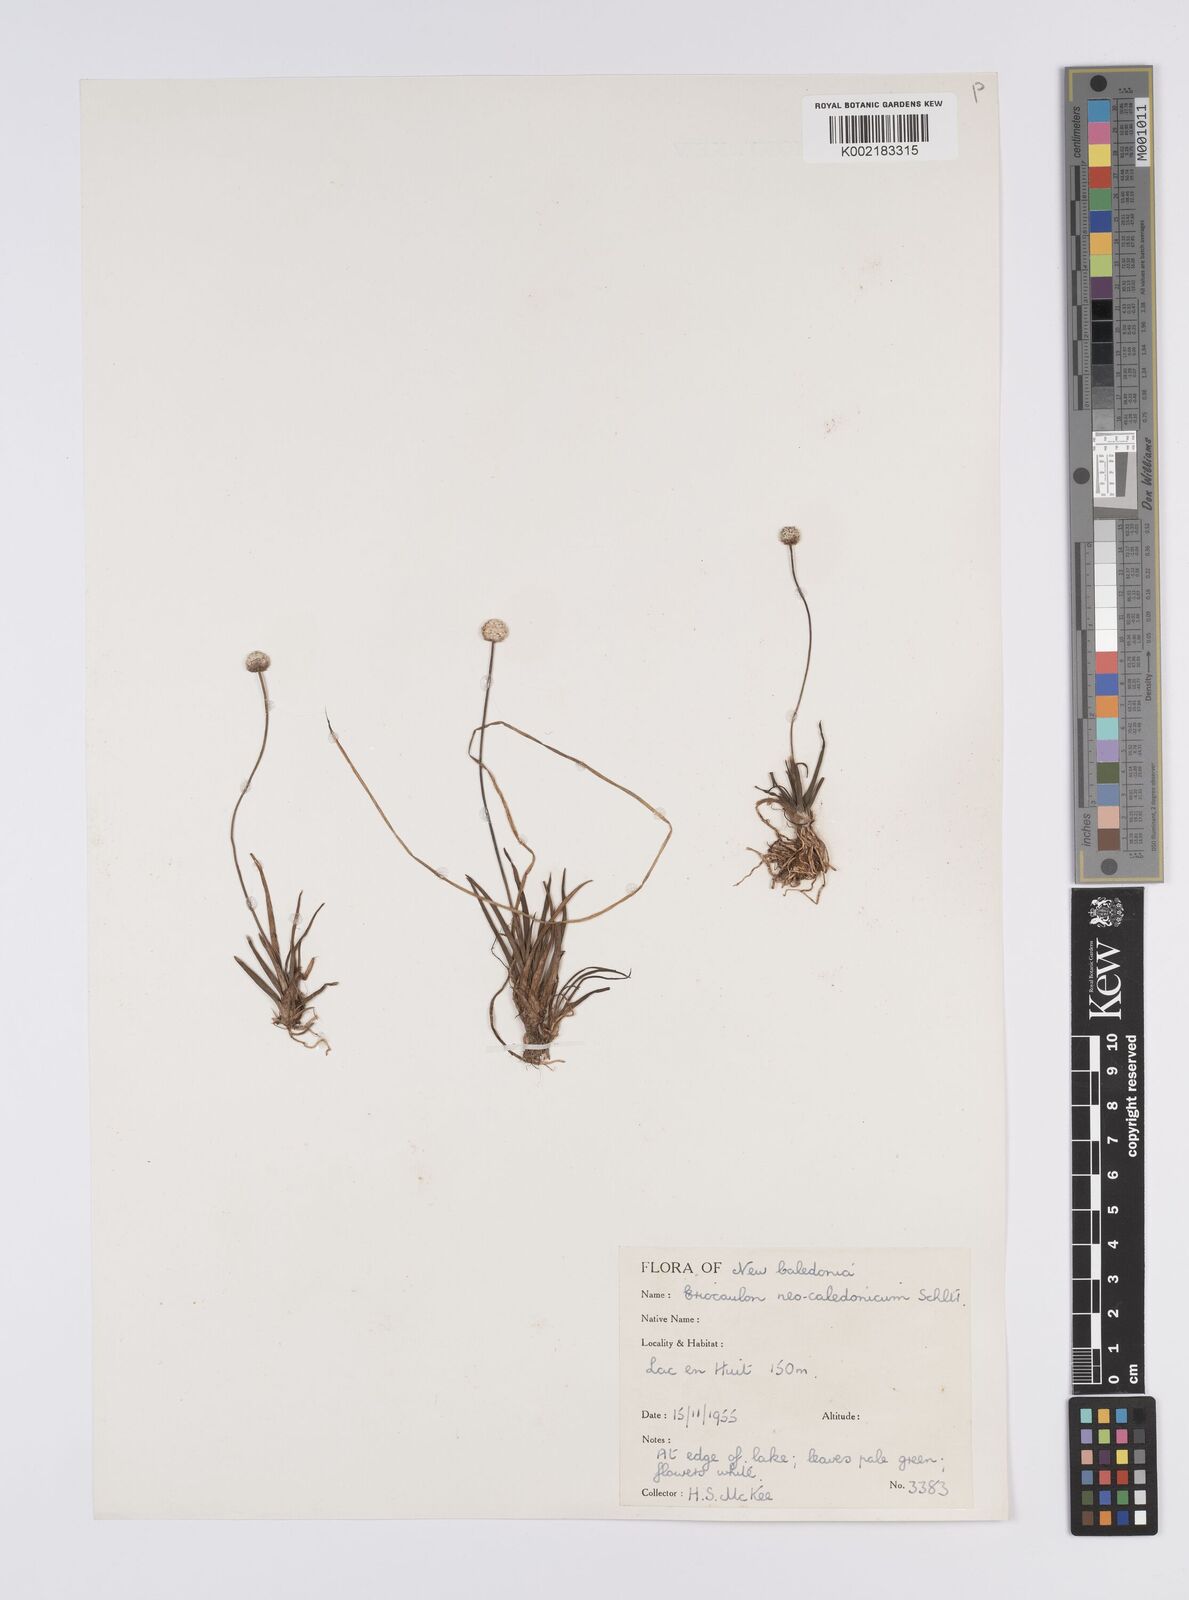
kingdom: Plantae
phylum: Tracheophyta
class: Liliopsida
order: Poales
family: Eriocaulaceae
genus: Eriocaulon
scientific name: Eriocaulon neocaledonicum
